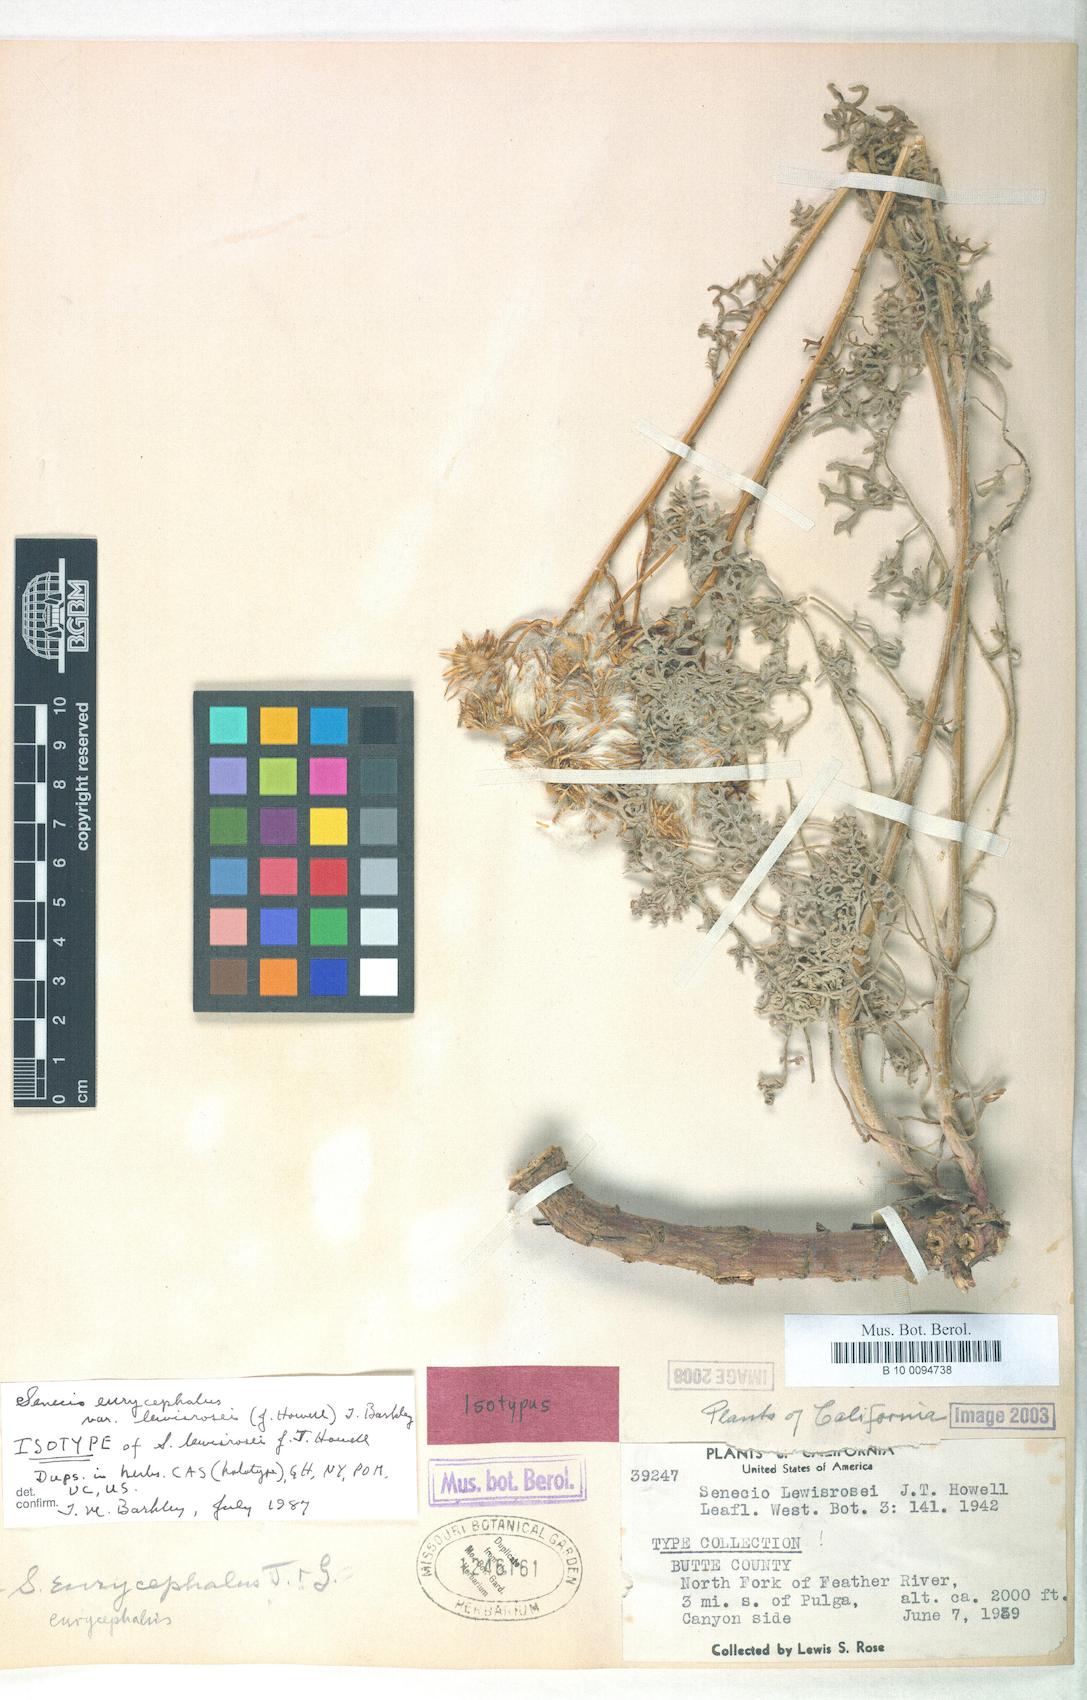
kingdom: Plantae
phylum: Tracheophyta
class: Magnoliopsida
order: Asterales
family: Asteraceae
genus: Packera
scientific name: Packera eurycephala
